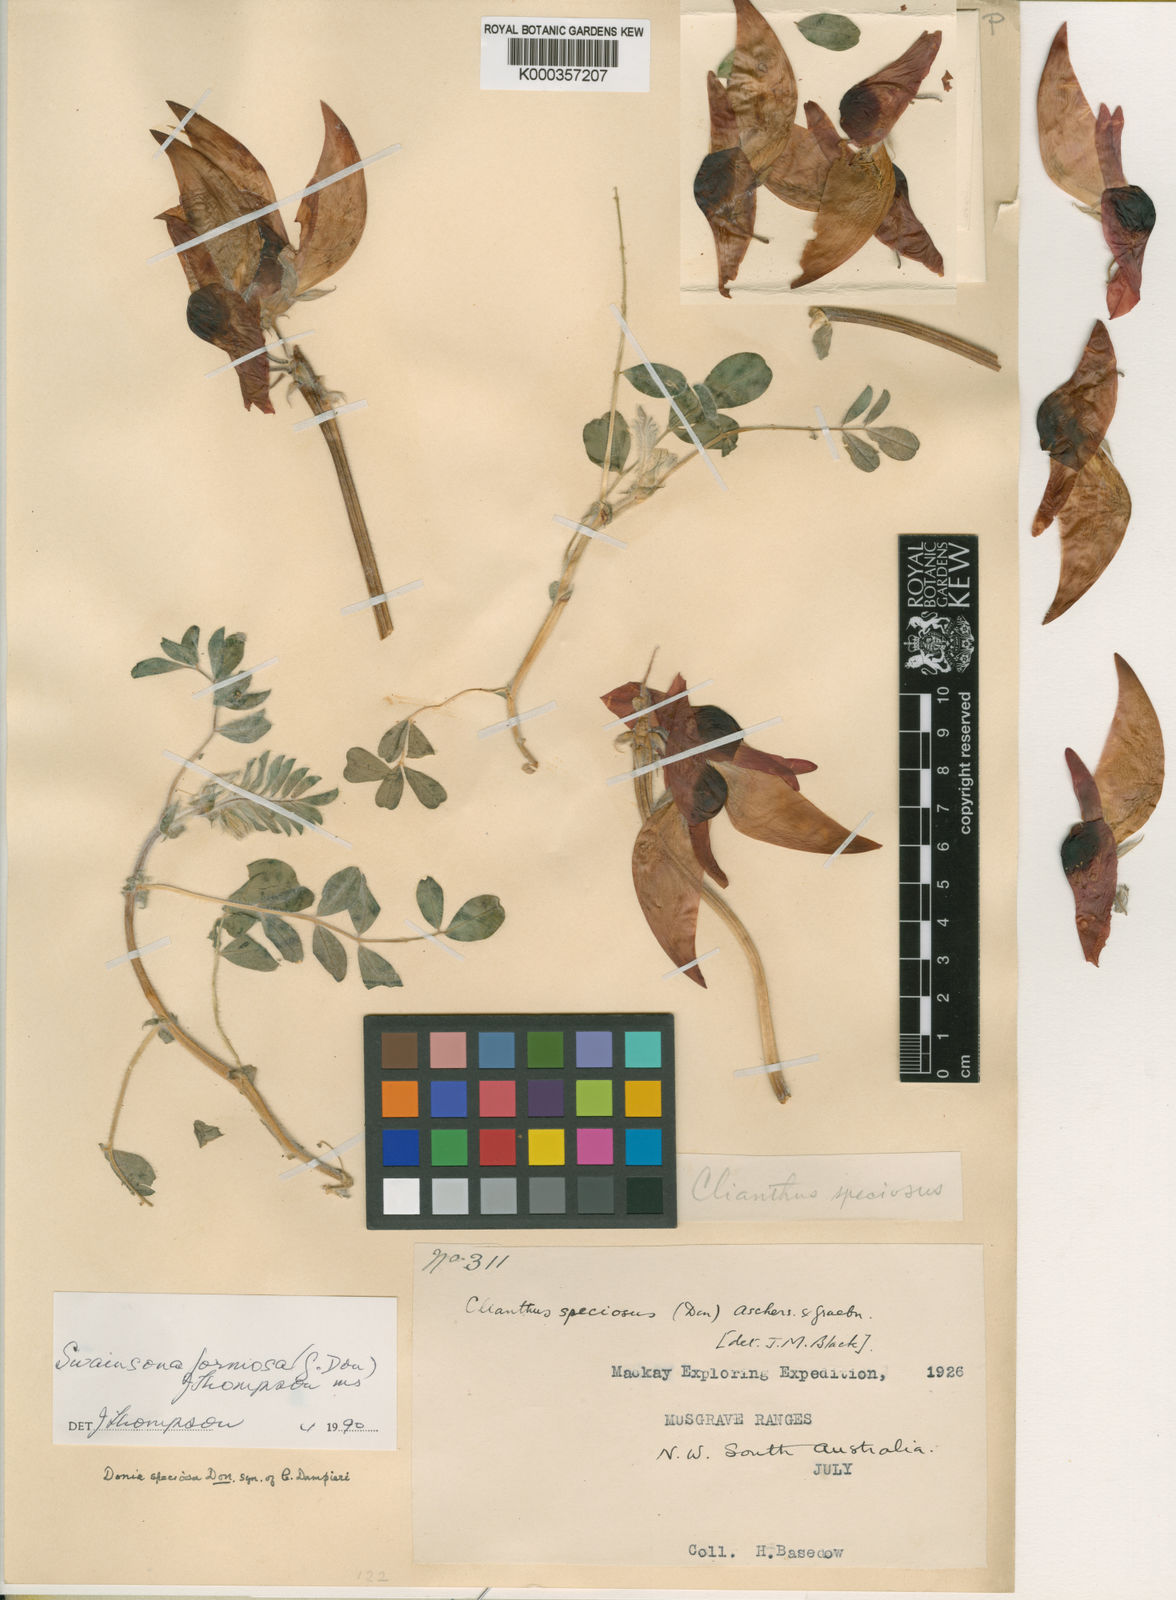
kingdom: Plantae
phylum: Tracheophyta
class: Magnoliopsida
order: Fabales
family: Fabaceae
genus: Swainsona
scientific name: Swainsona formosa
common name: Sturt's desert-pea
